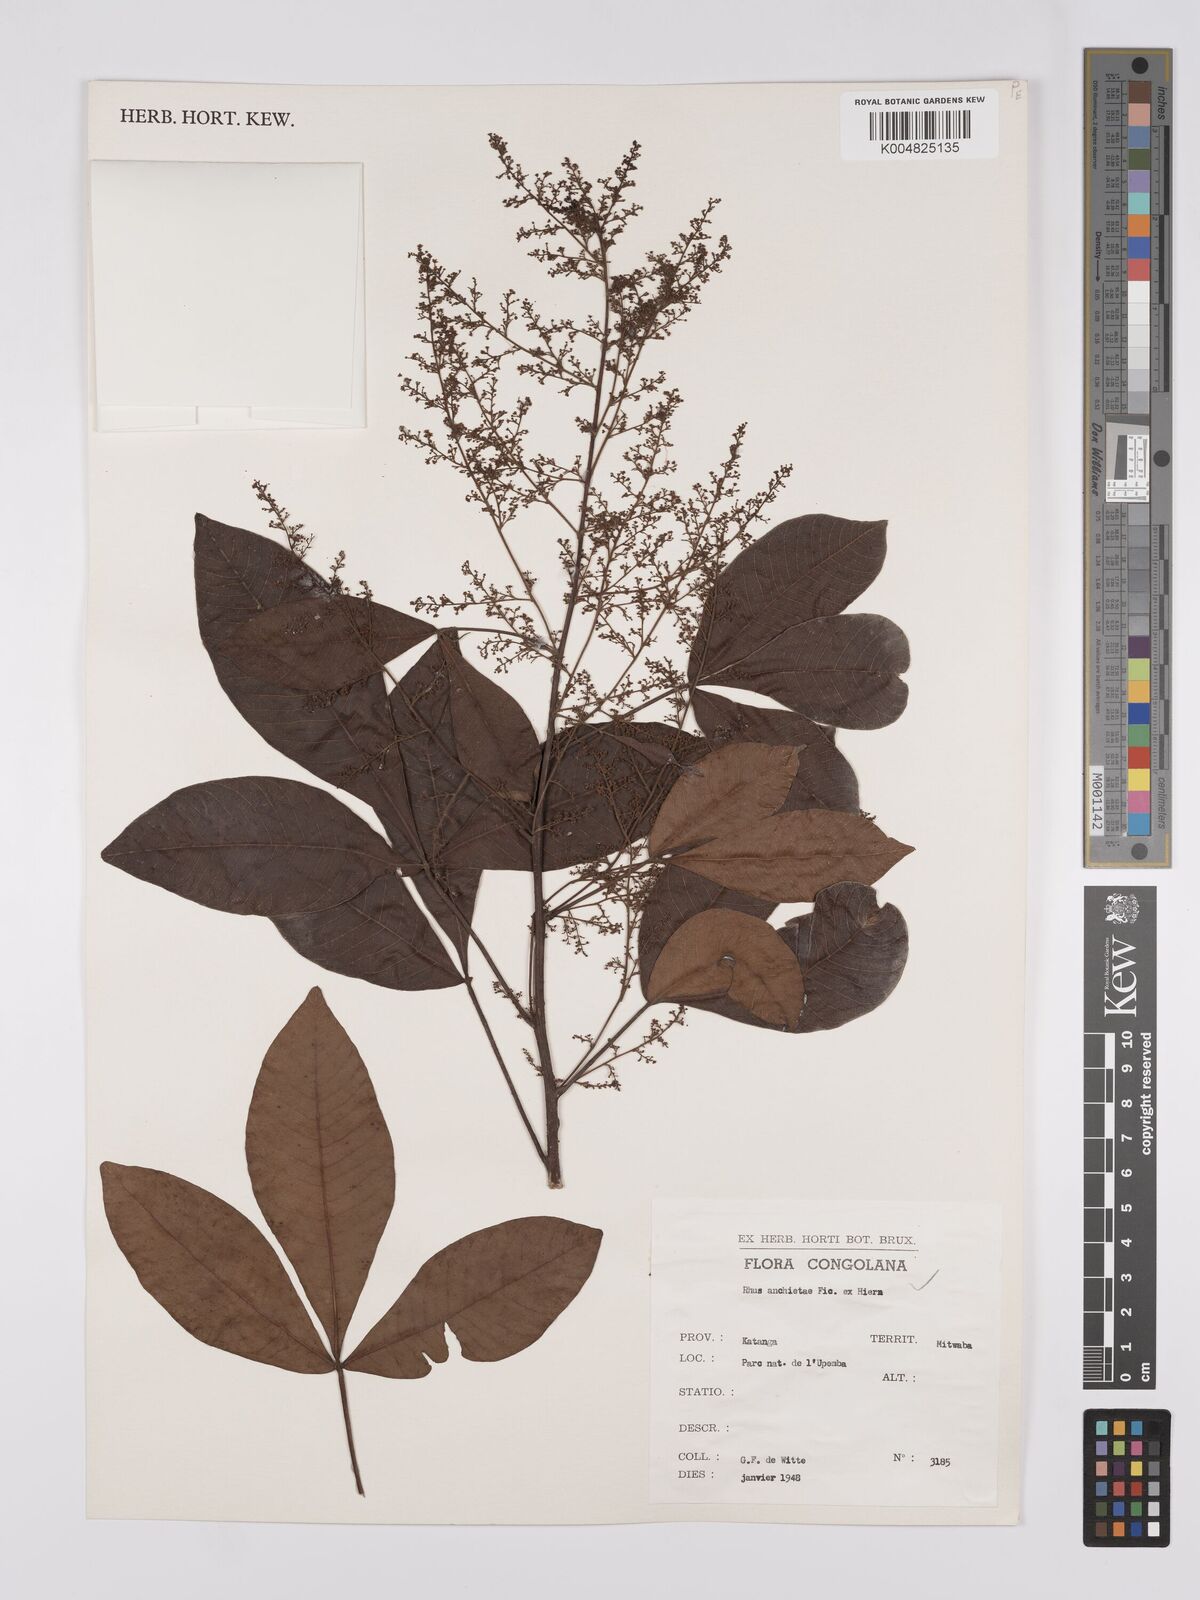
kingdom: Plantae
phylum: Tracheophyta
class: Magnoliopsida
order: Sapindales
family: Anacardiaceae
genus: Searsia
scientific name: Searsia anchietae
